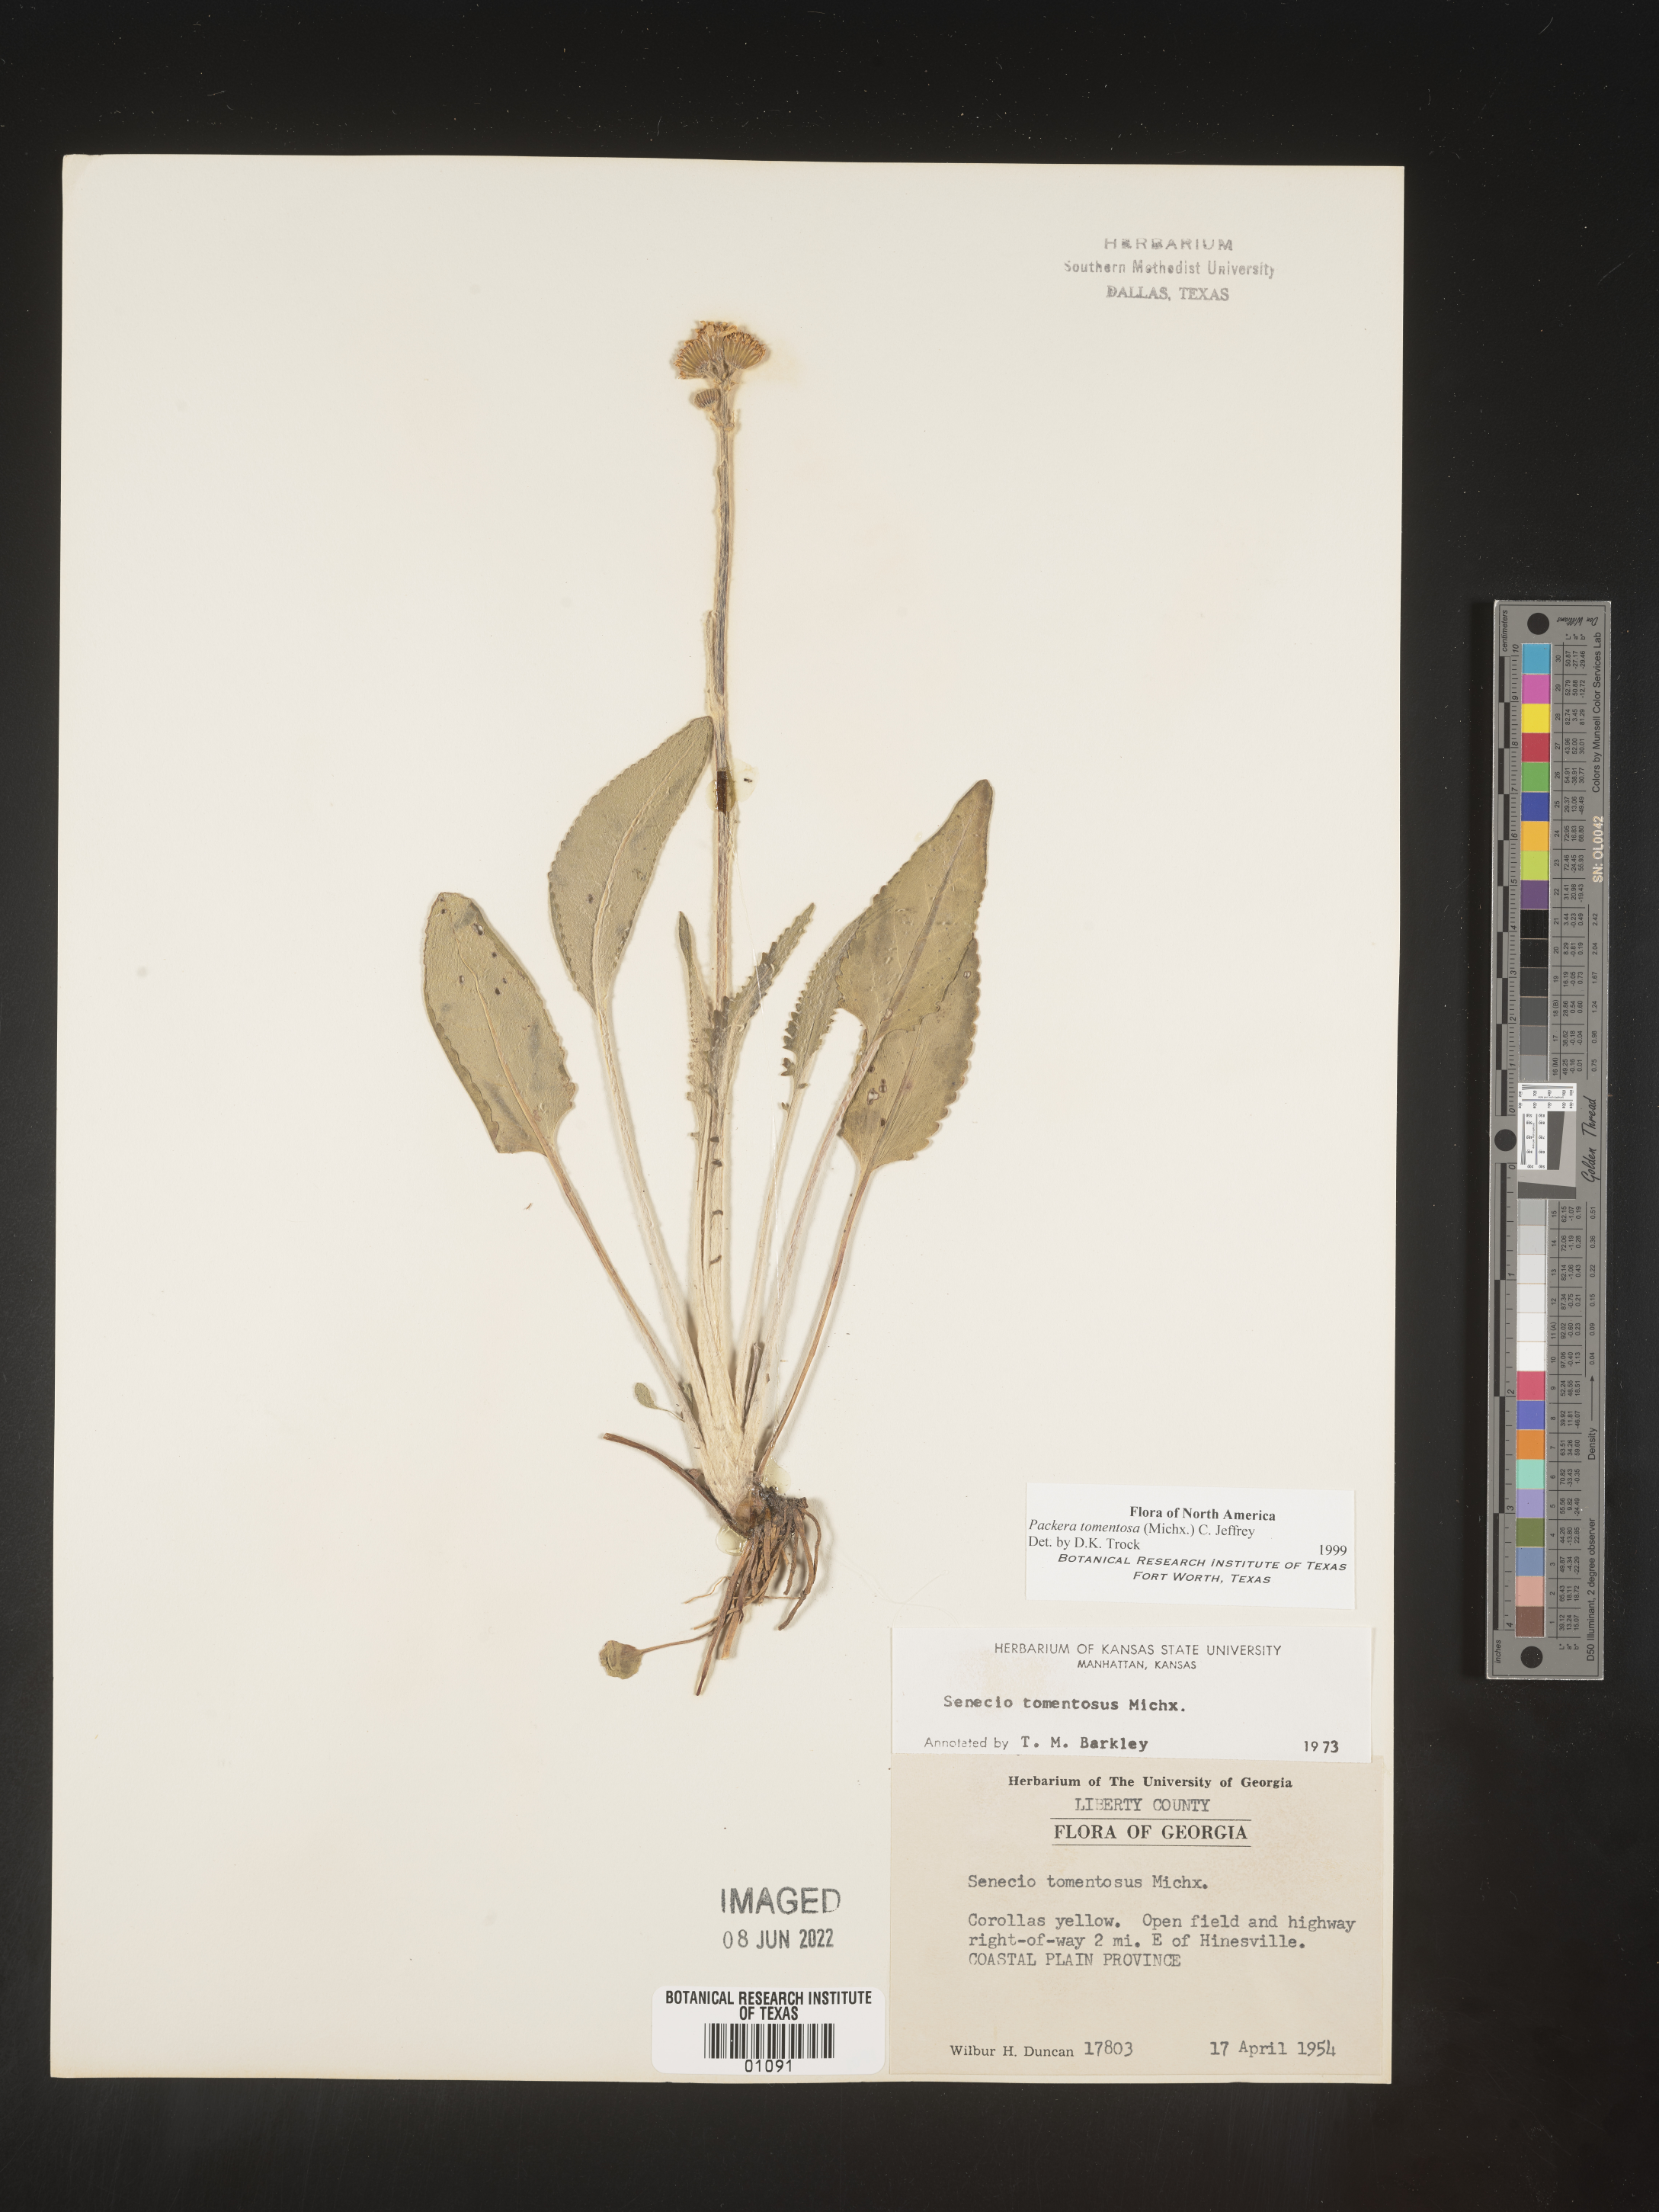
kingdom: Plantae
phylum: Tracheophyta
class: Magnoliopsida
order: Asterales
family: Asteraceae
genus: Packera
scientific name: Packera dubia
